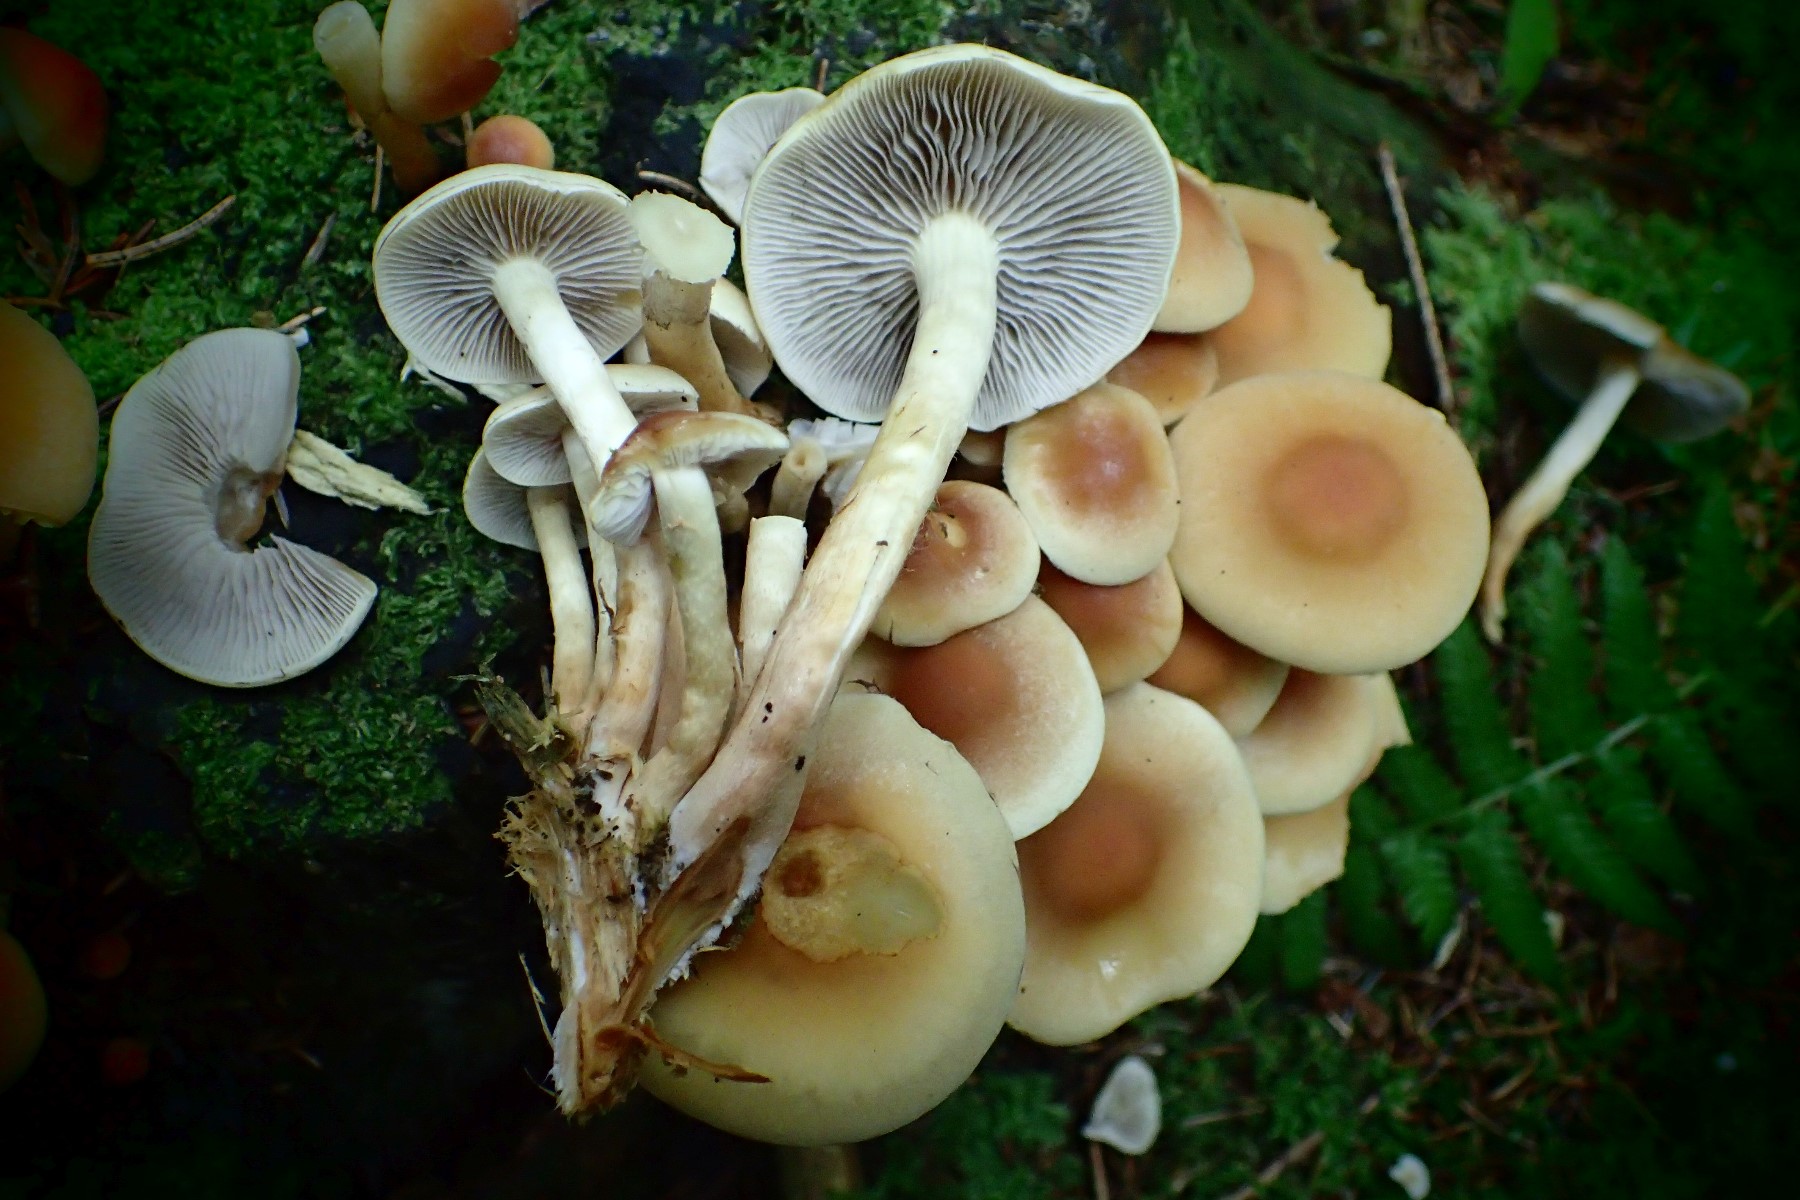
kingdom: Fungi
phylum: Basidiomycota
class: Agaricomycetes
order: Agaricales
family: Strophariaceae
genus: Hypholoma
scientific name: Hypholoma capnoides
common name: gran-svovlhat
